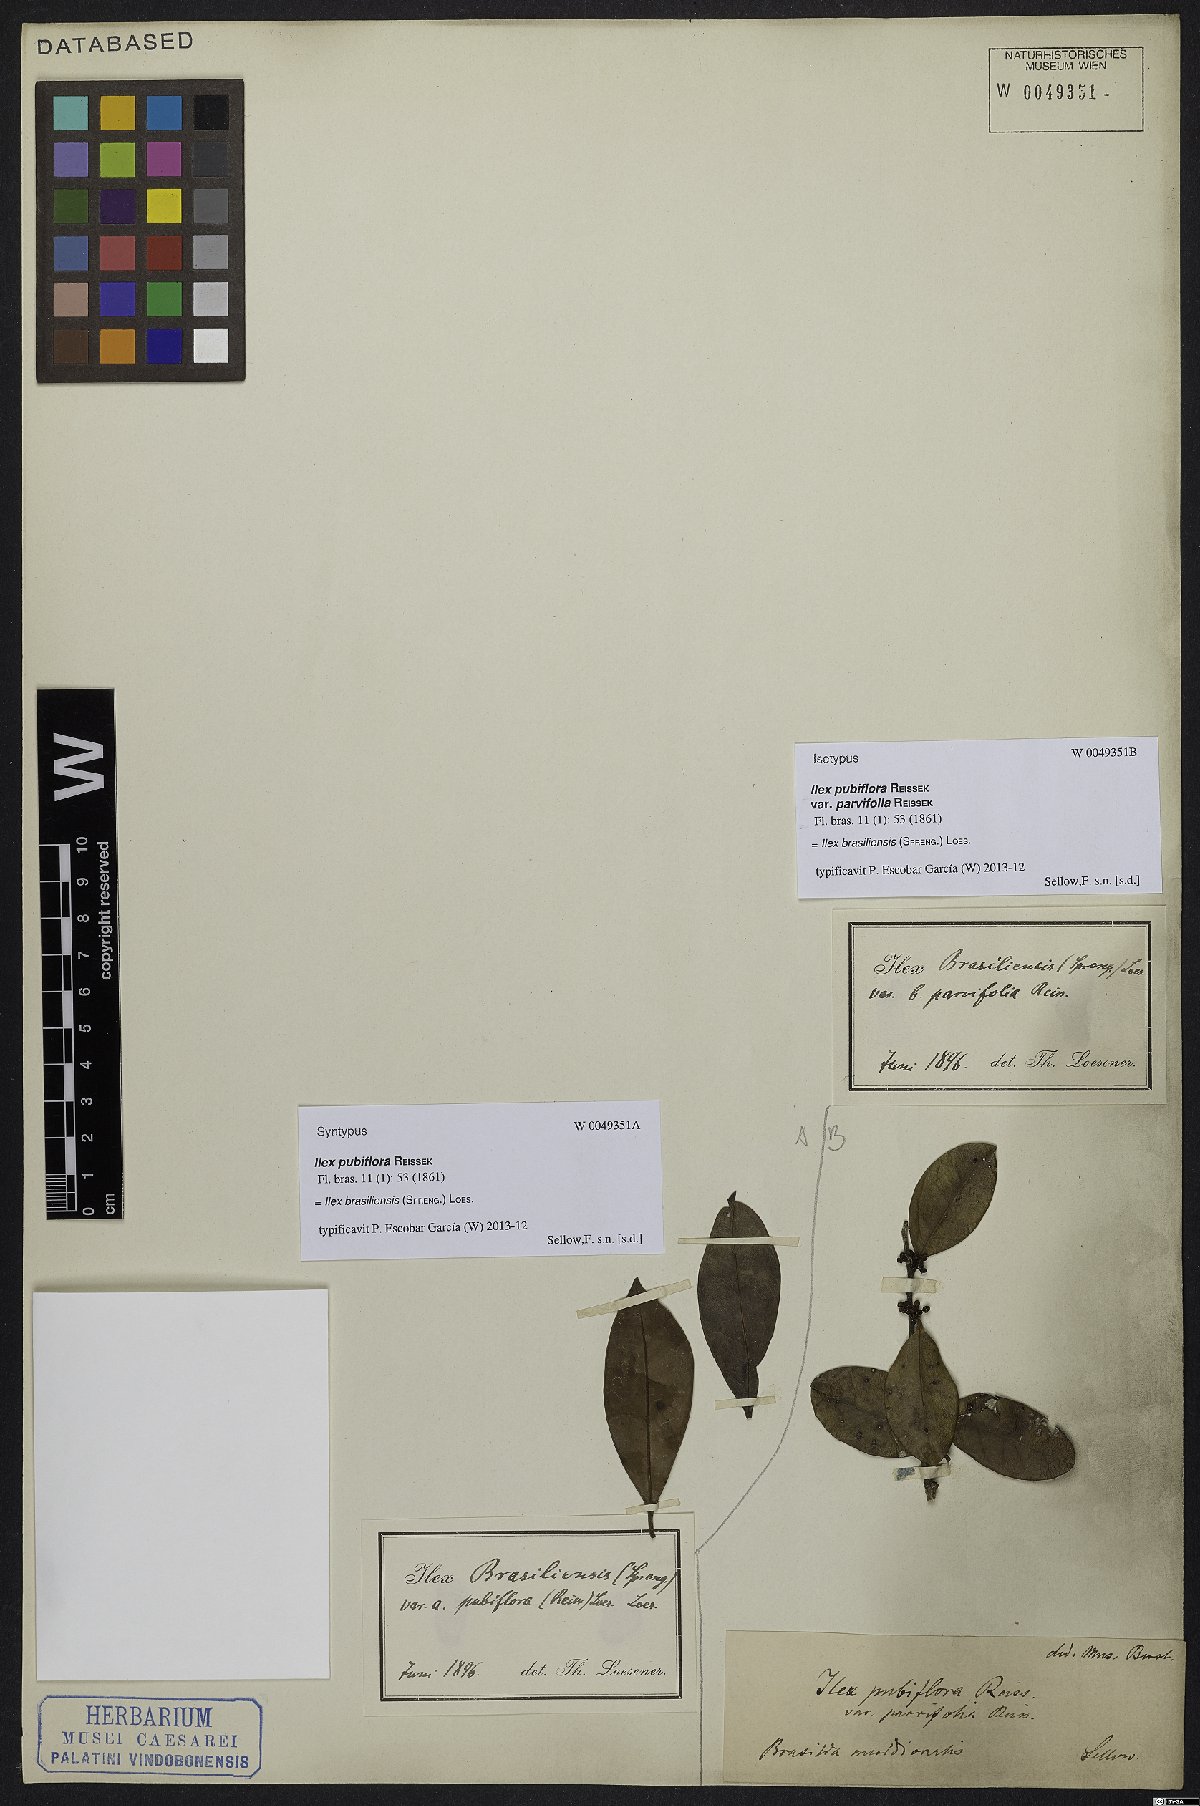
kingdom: Plantae
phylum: Tracheophyta
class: Magnoliopsida
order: Aquifoliales
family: Aquifoliaceae
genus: Ilex
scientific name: Ilex brasiliensis
